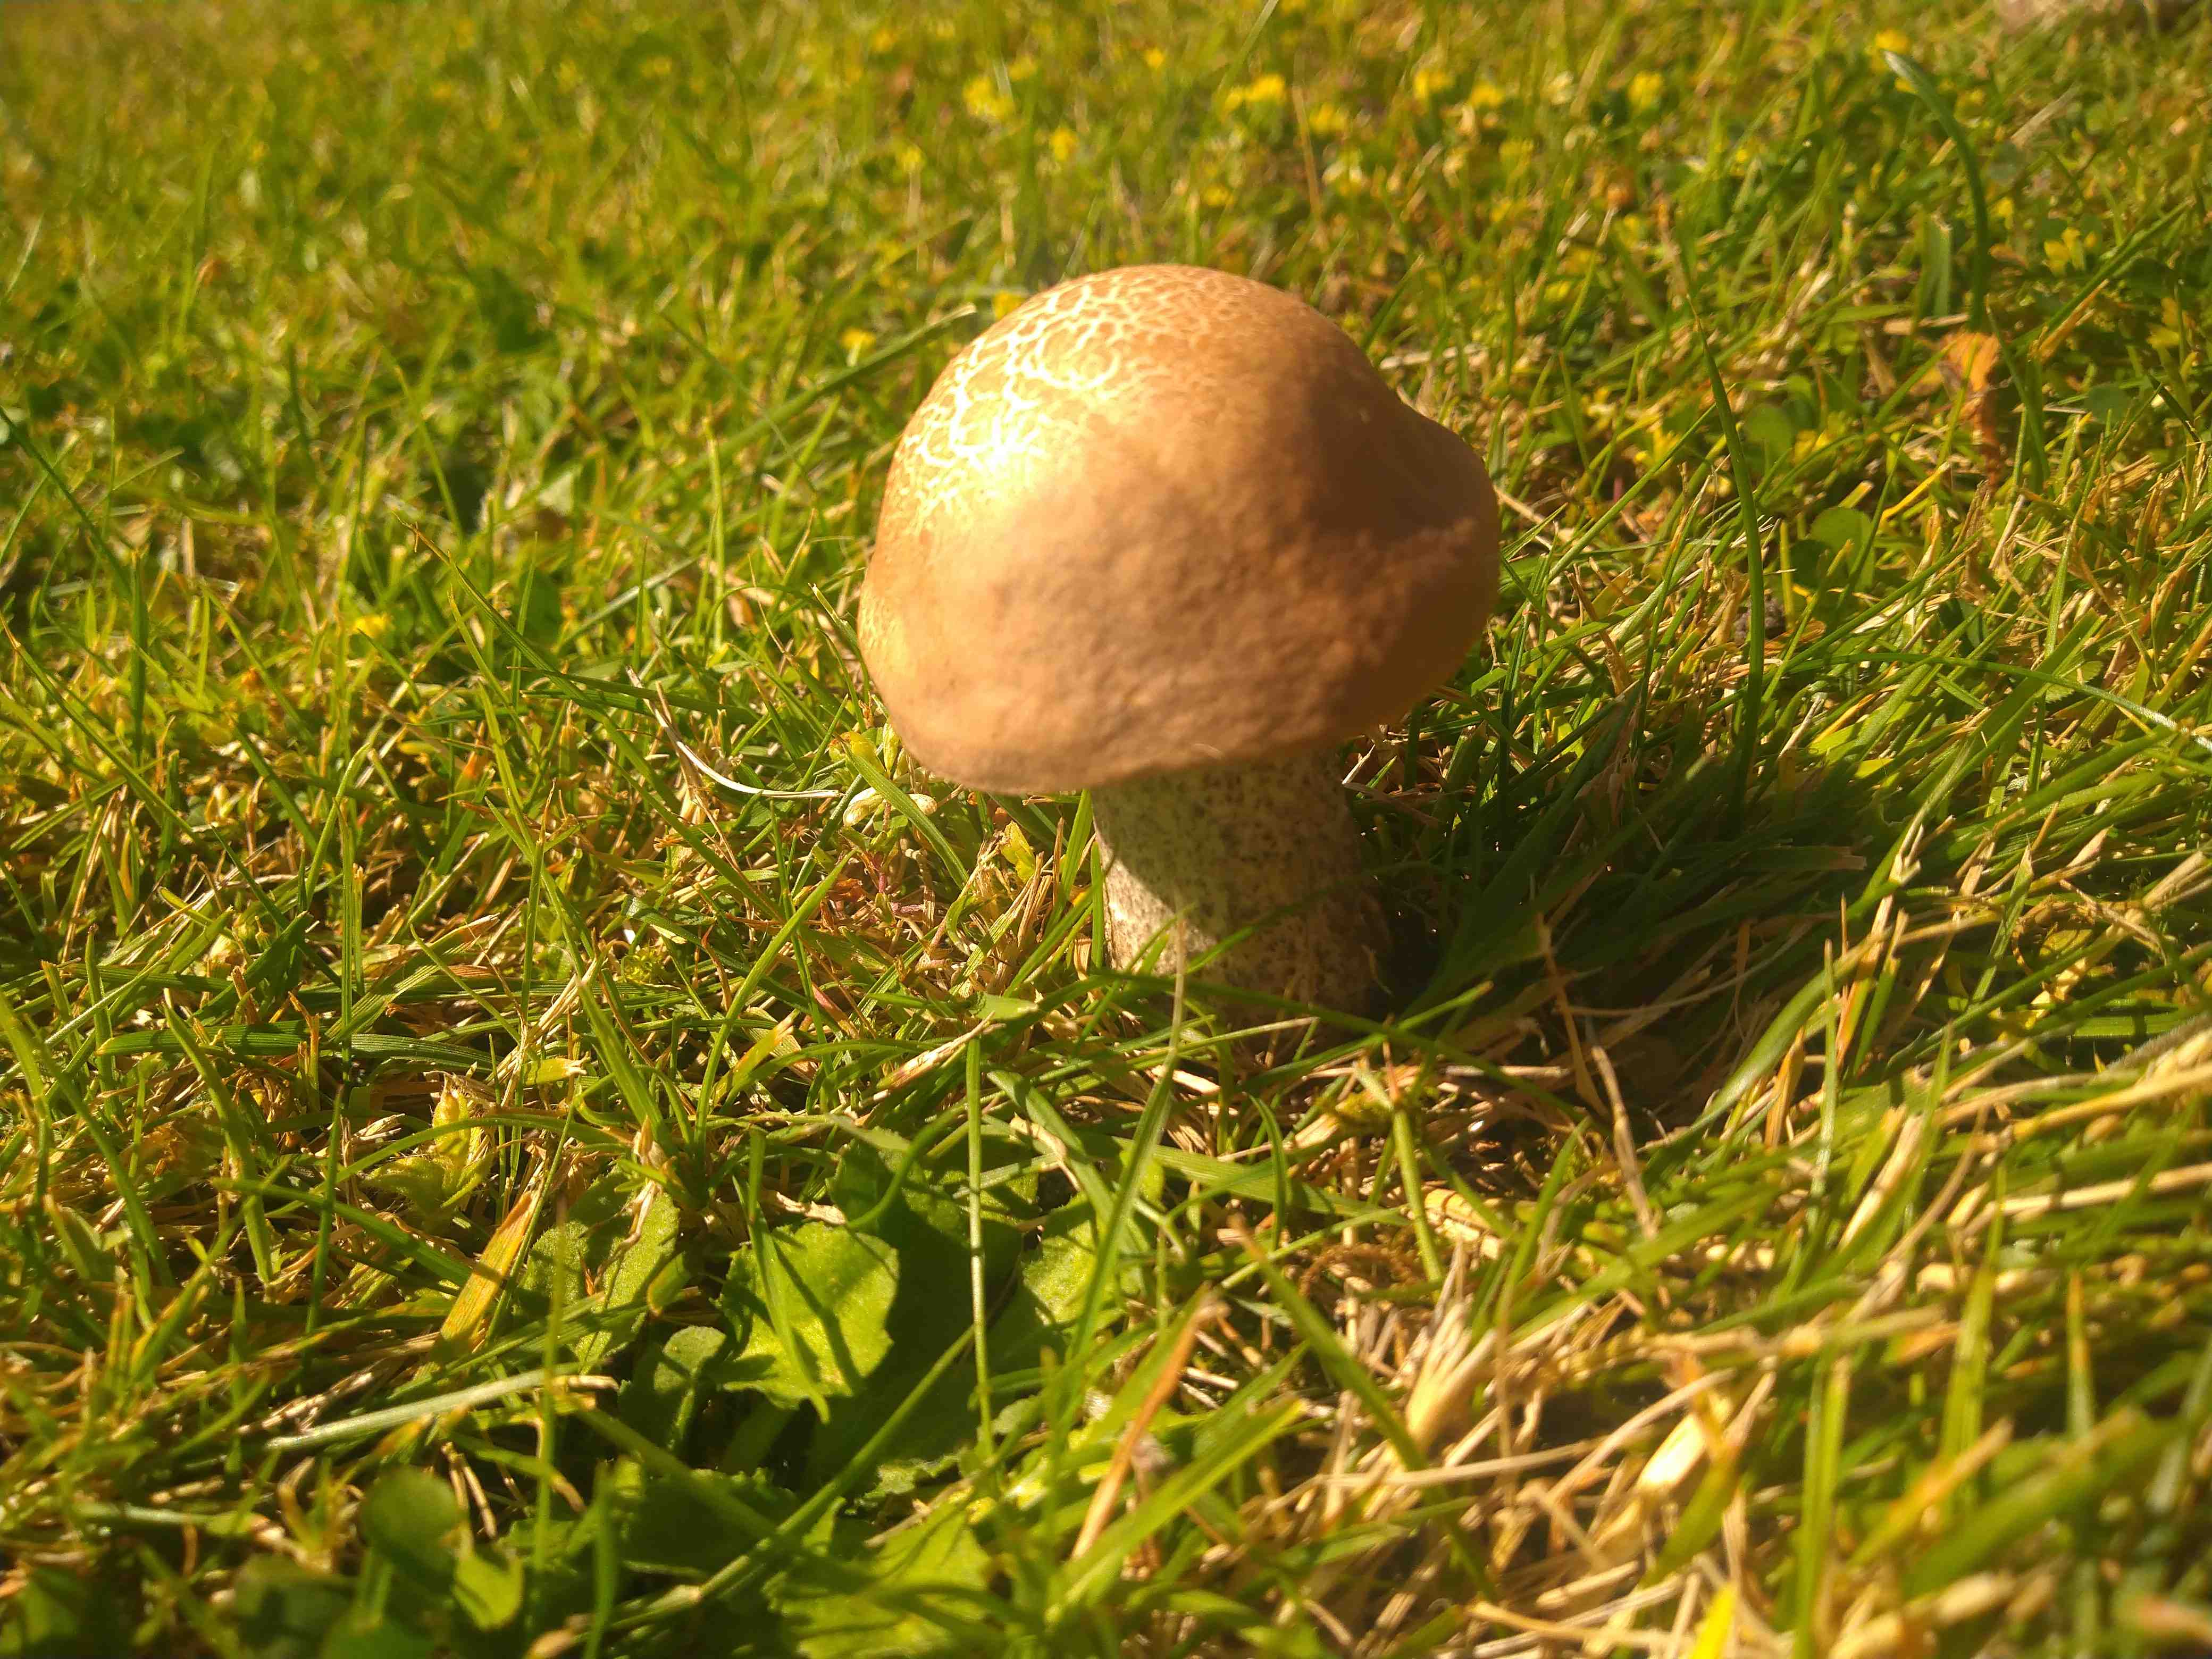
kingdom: Fungi
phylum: Basidiomycota
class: Agaricomycetes
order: Boletales
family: Boletaceae
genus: Leccinum
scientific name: Leccinum
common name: skælrørhat
